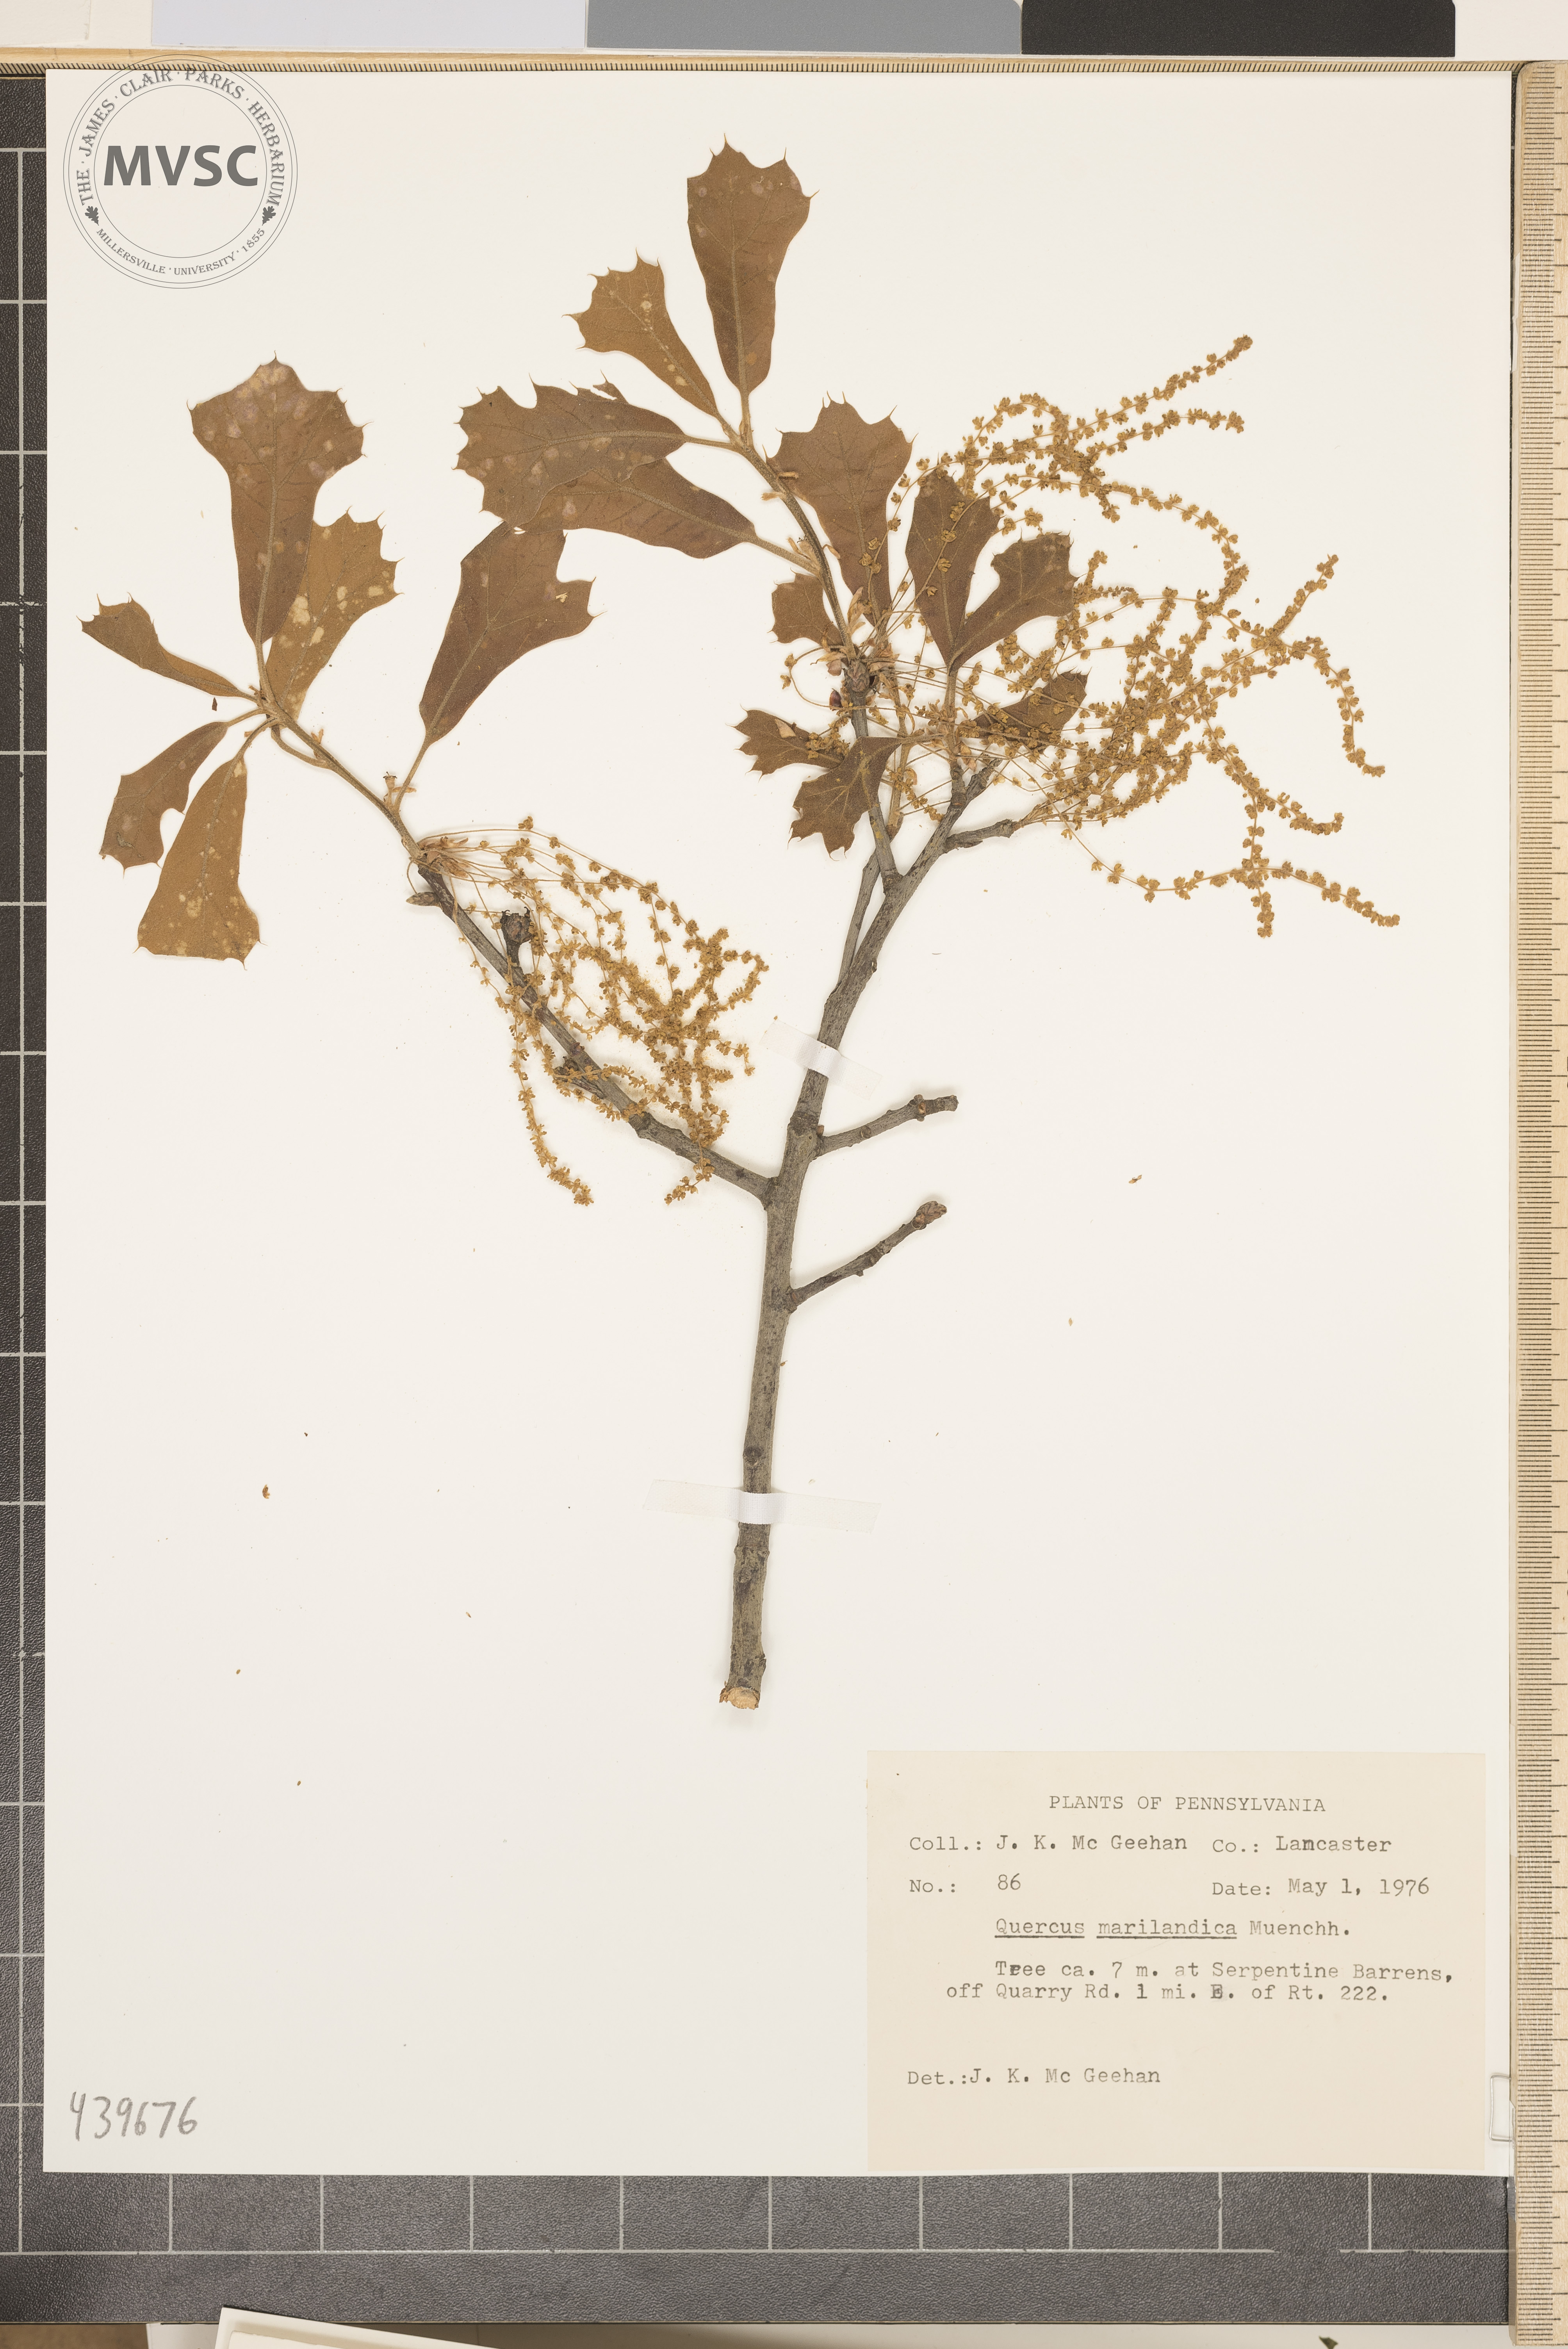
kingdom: Plantae
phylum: Tracheophyta
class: Magnoliopsida
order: Fagales
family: Fagaceae
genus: Quercus
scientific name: Quercus marilandica
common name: Blackjack oak
